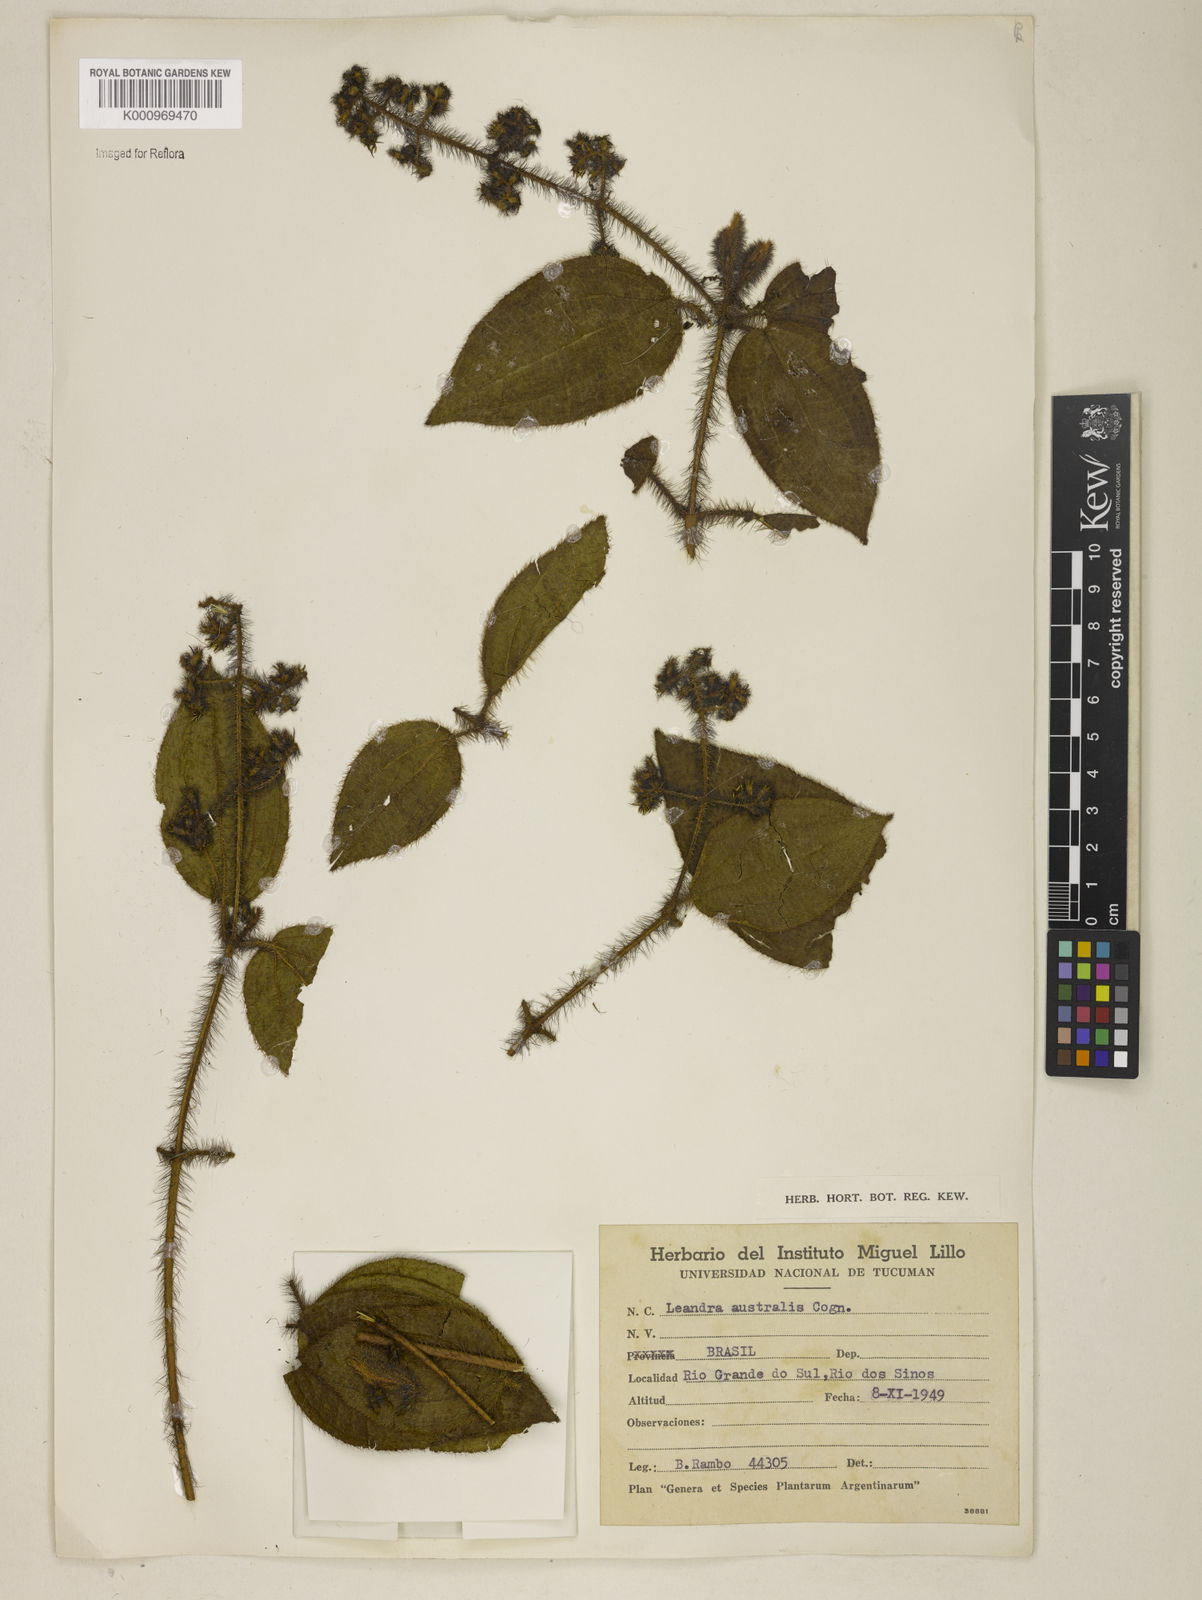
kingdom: Plantae
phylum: Tracheophyta
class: Magnoliopsida
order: Myrtales
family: Melastomataceae
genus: Miconia
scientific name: Miconia australis
